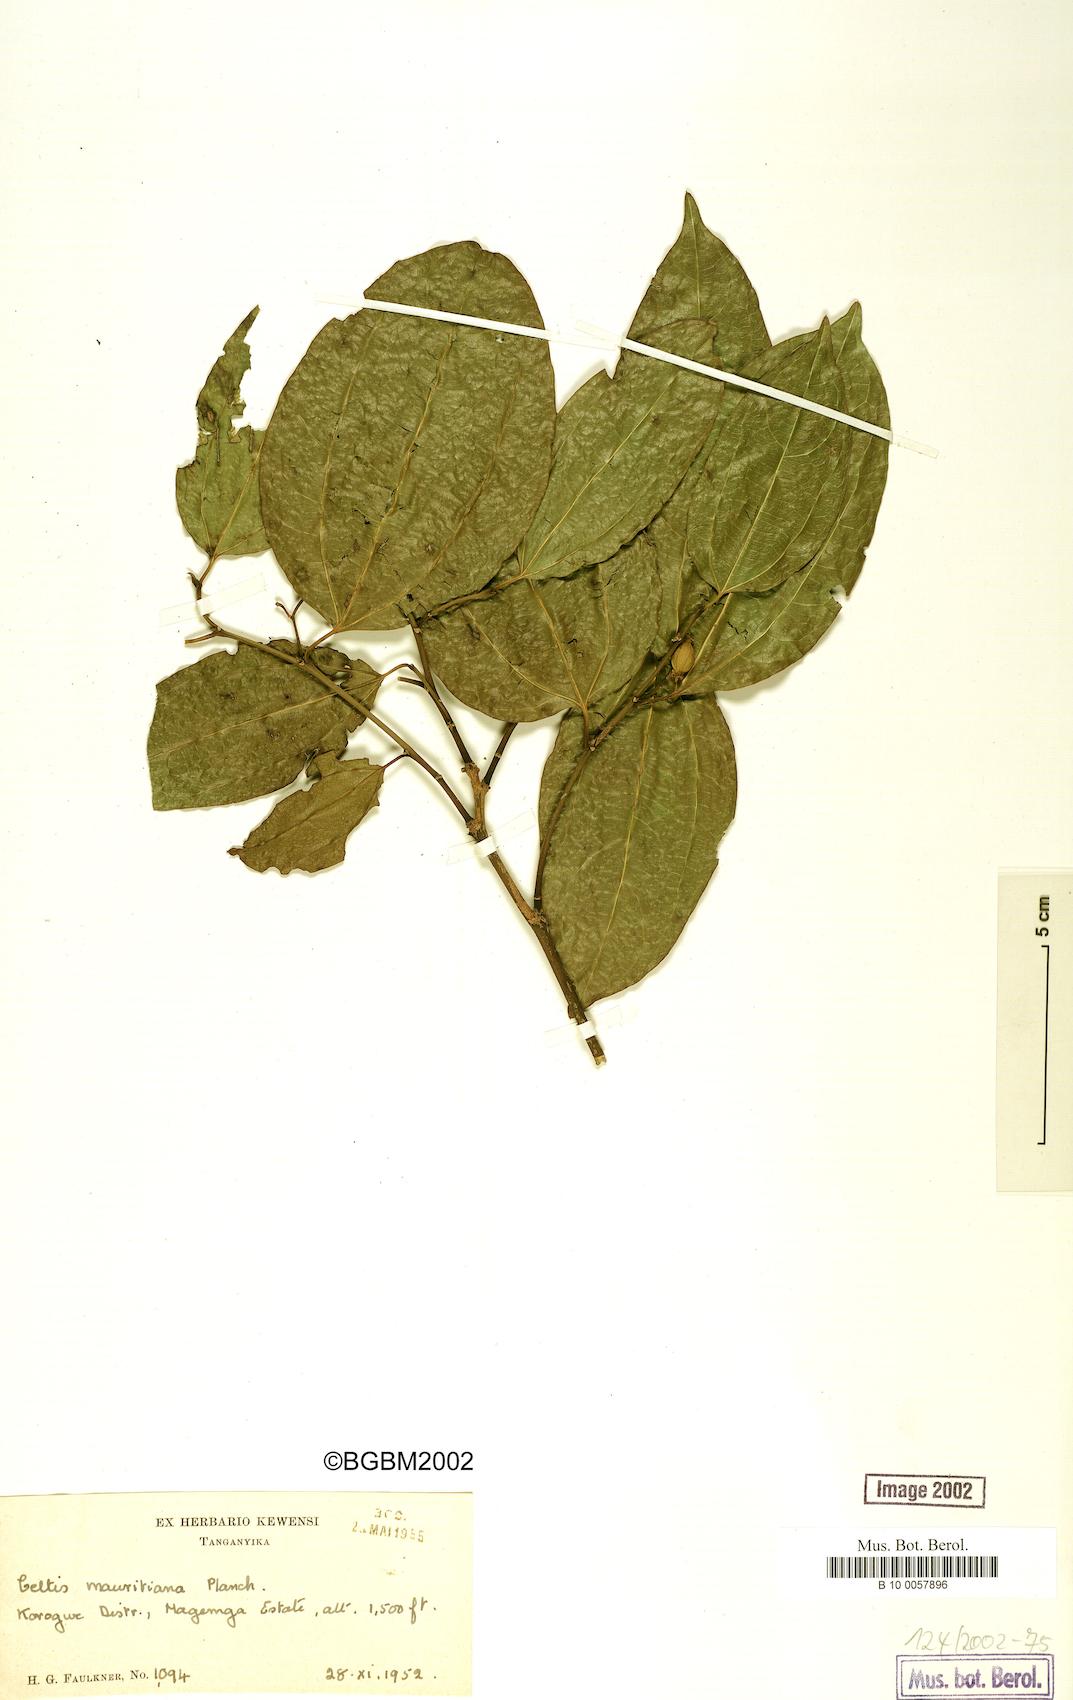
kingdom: Plantae
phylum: Tracheophyta
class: Magnoliopsida
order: Rosales
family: Cannabaceae
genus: Celtis
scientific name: Celtis philippensis
